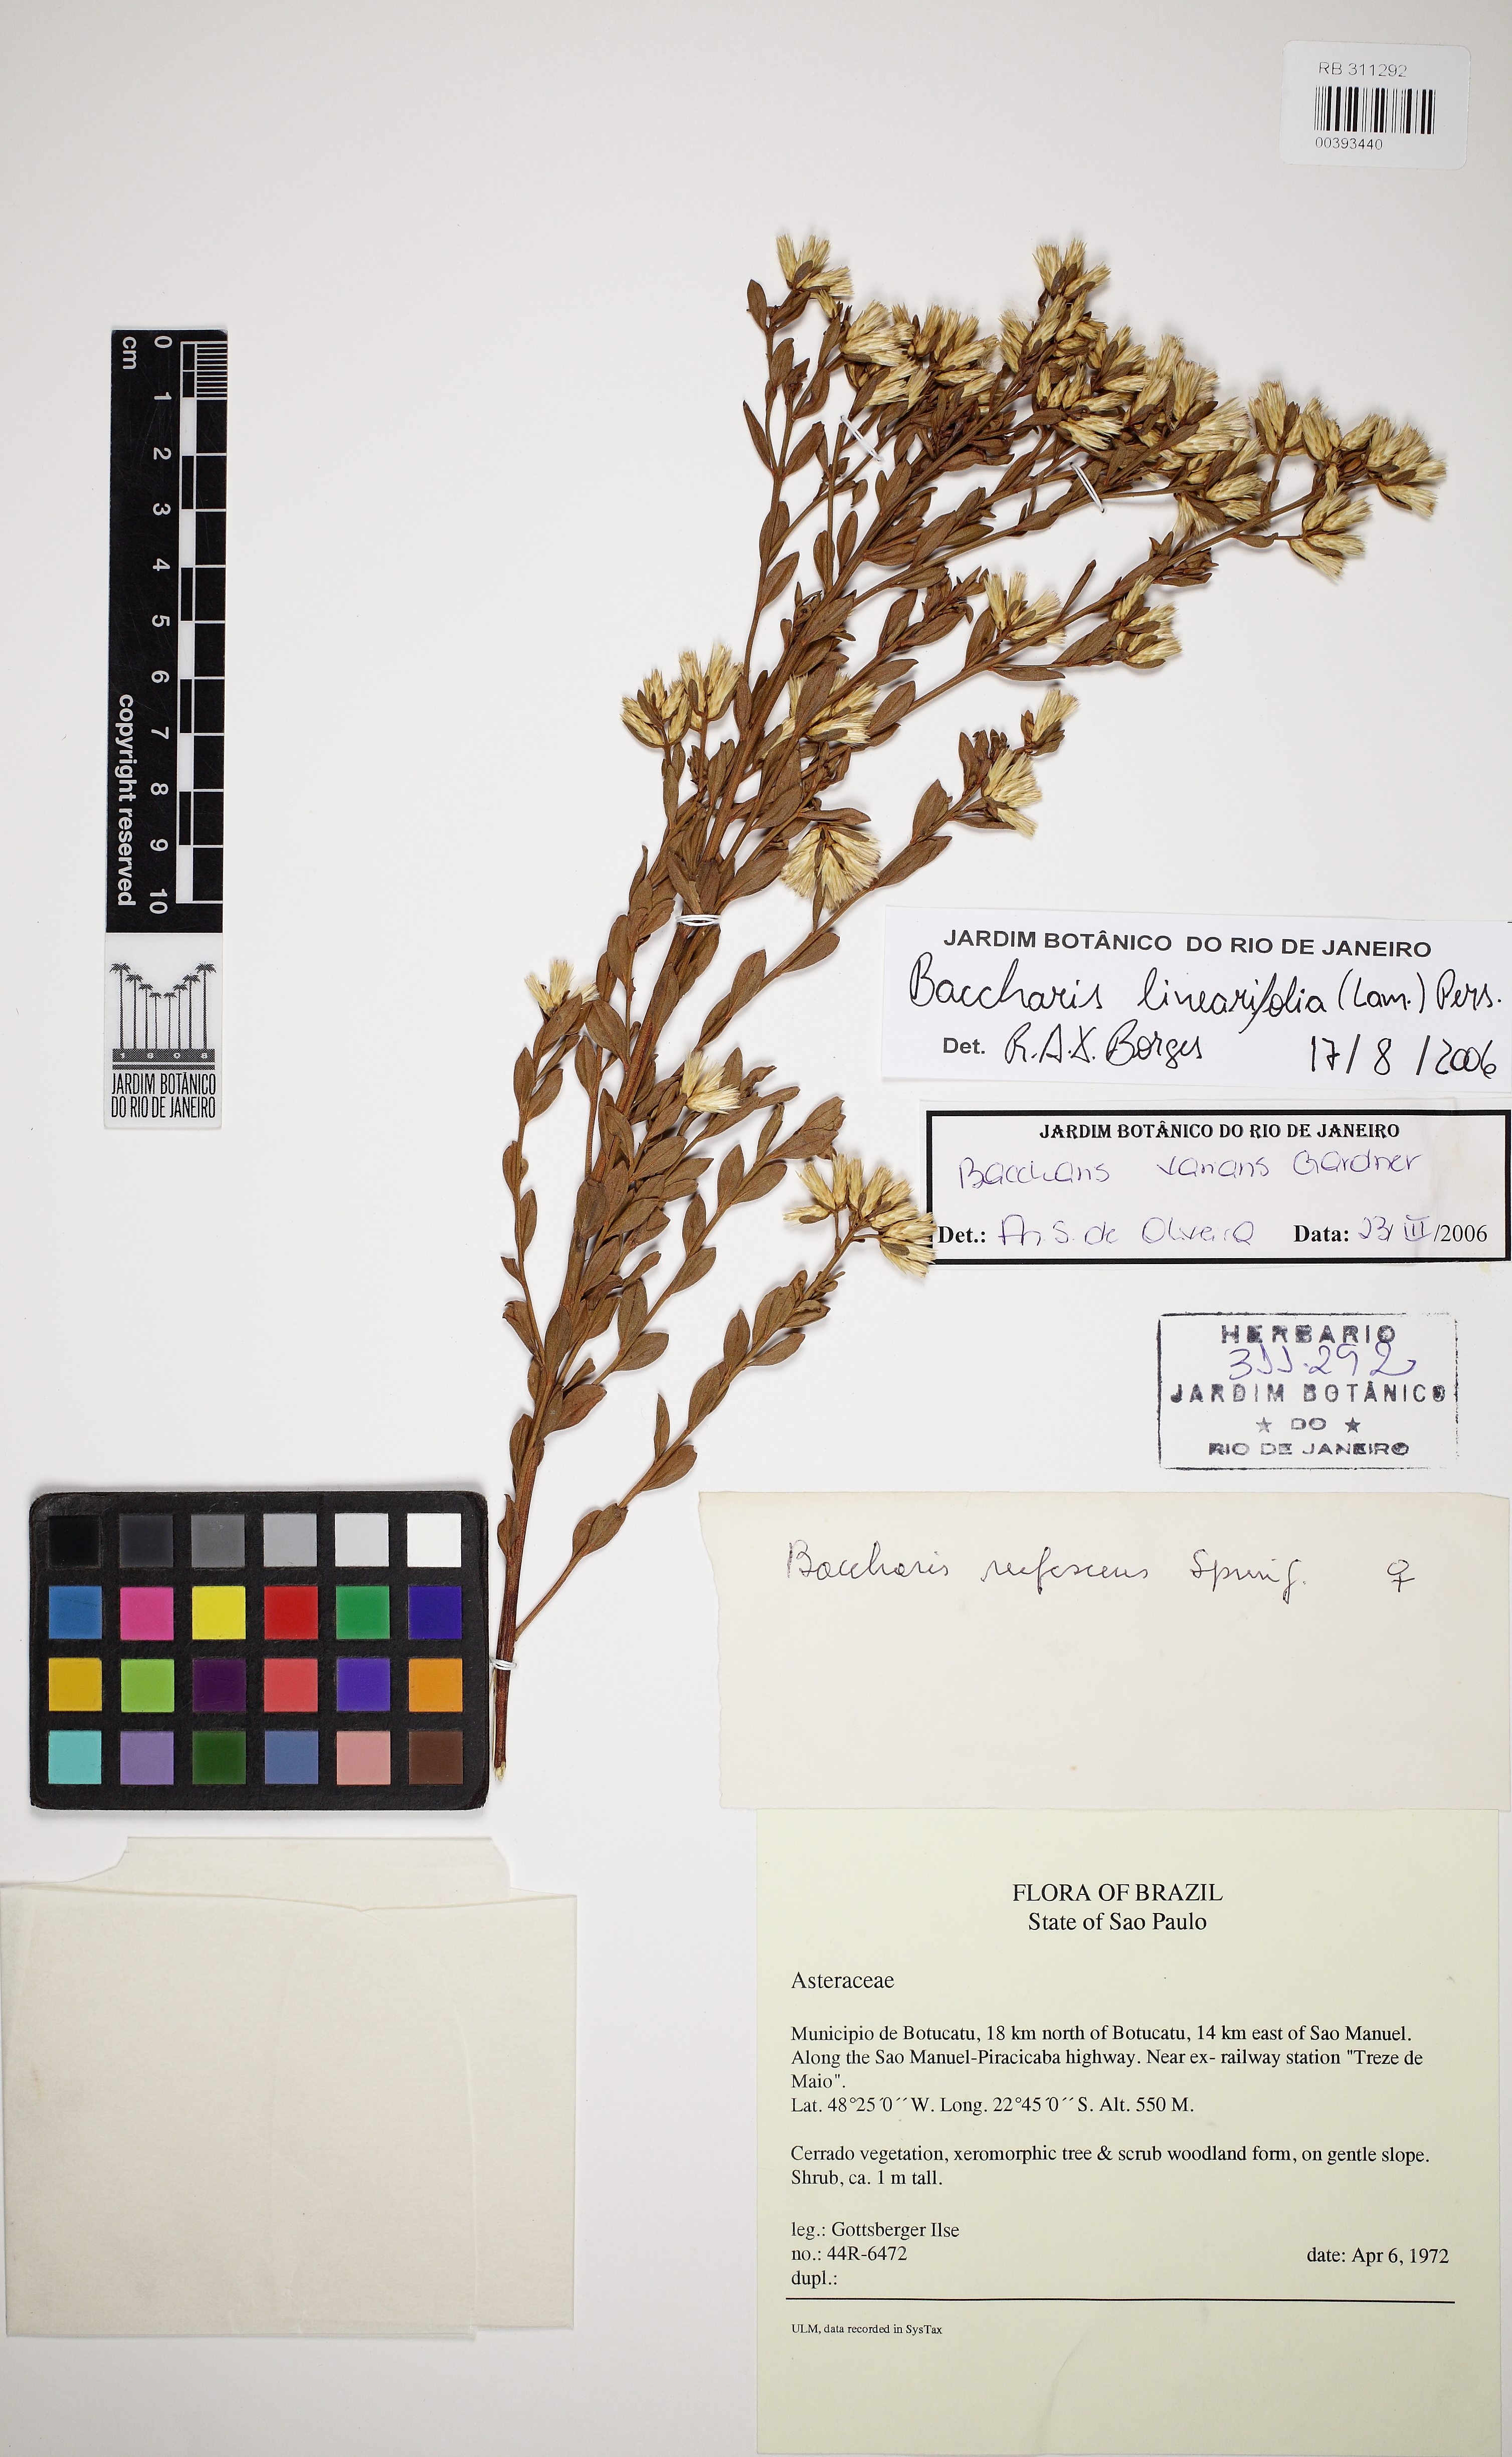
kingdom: Plantae
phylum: Tracheophyta
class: Magnoliopsida
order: Asterales
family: Asteraceae
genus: Baccharis
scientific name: Baccharis linearifolia
